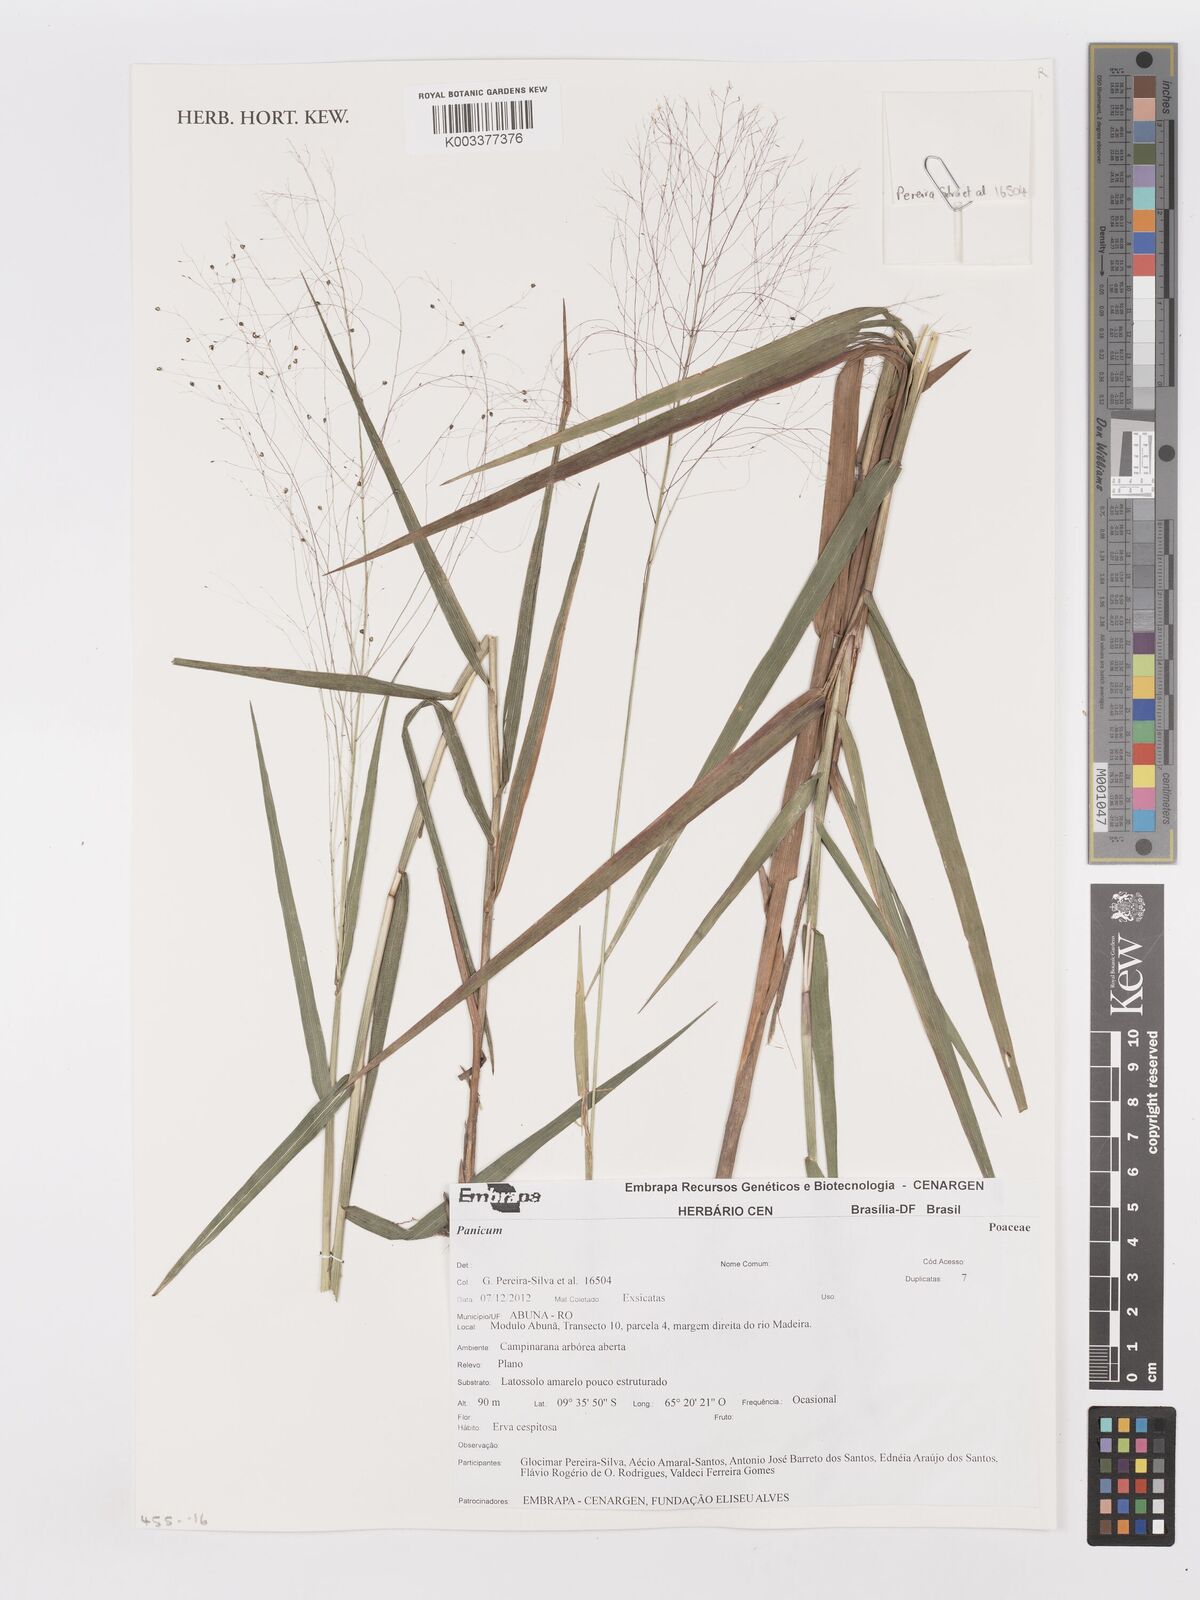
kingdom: Plantae
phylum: Tracheophyta
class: Liliopsida
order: Poales
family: Poaceae
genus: Panicum
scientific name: Panicum
